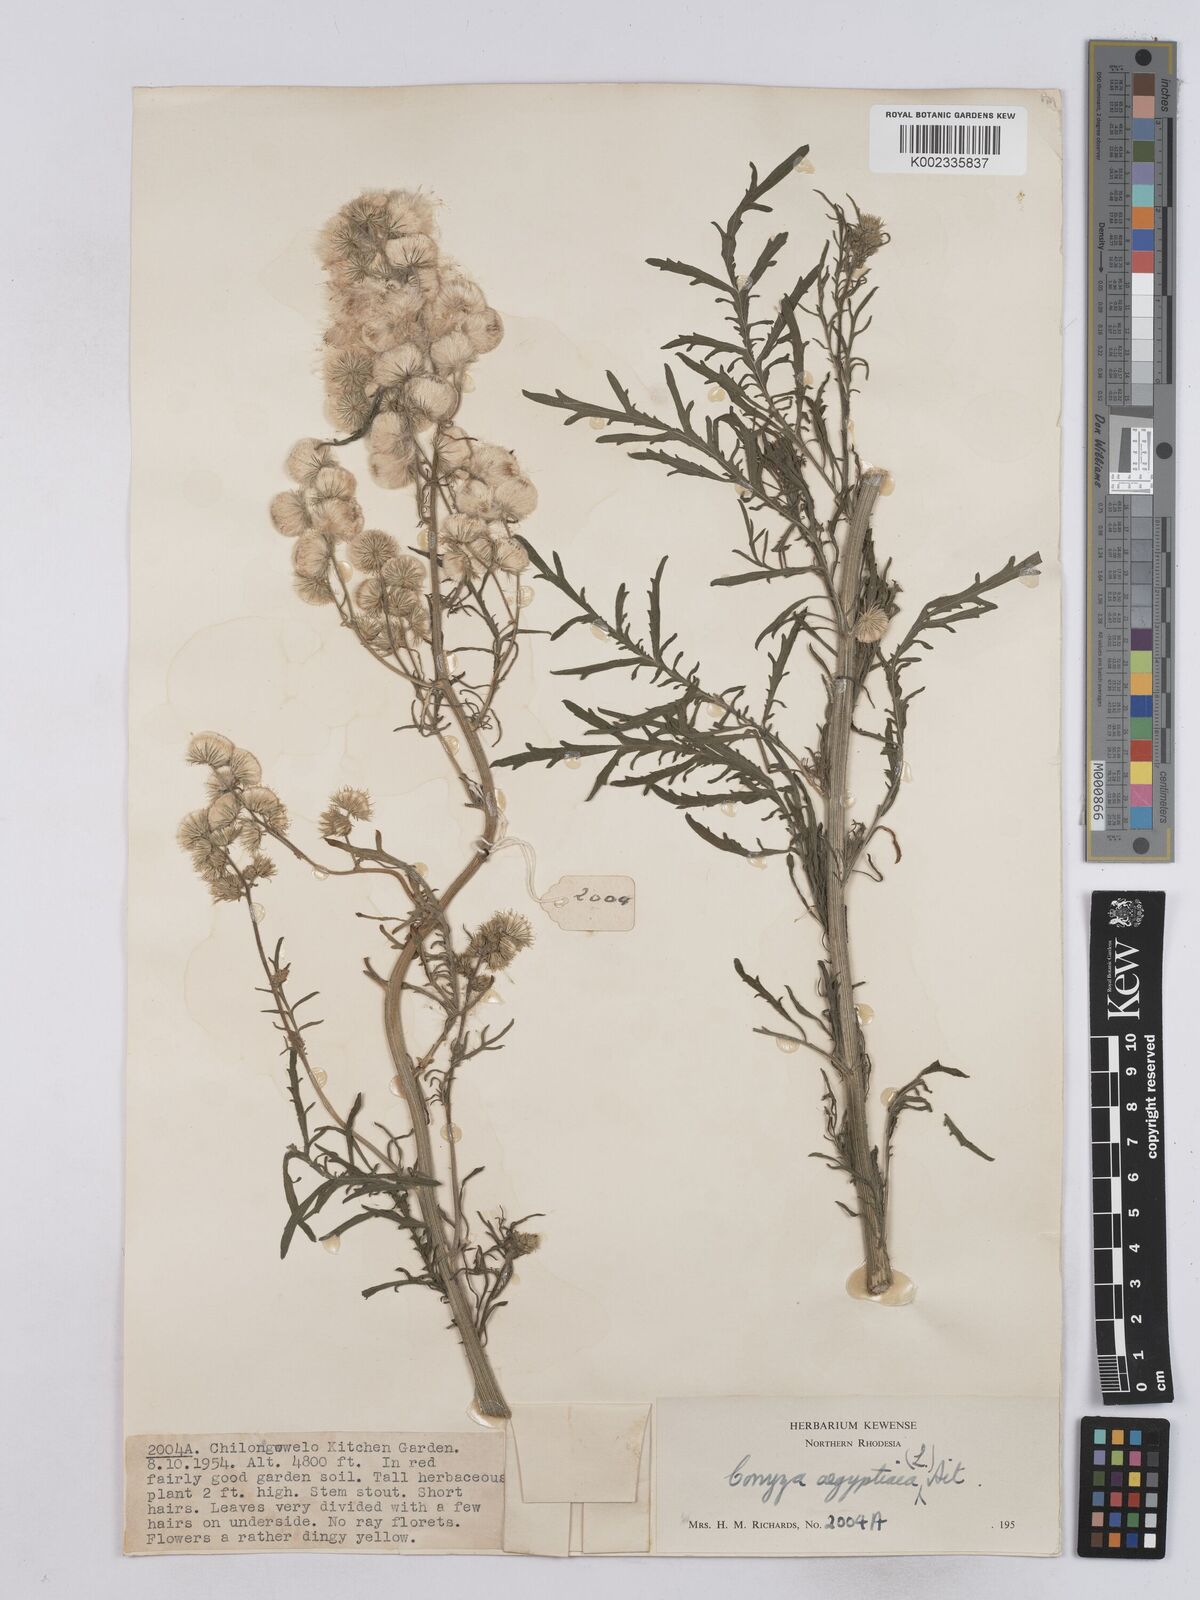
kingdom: Plantae
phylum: Tracheophyta
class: Magnoliopsida
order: Asterales
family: Asteraceae
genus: Nidorella
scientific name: Nidorella aegyptiaca
